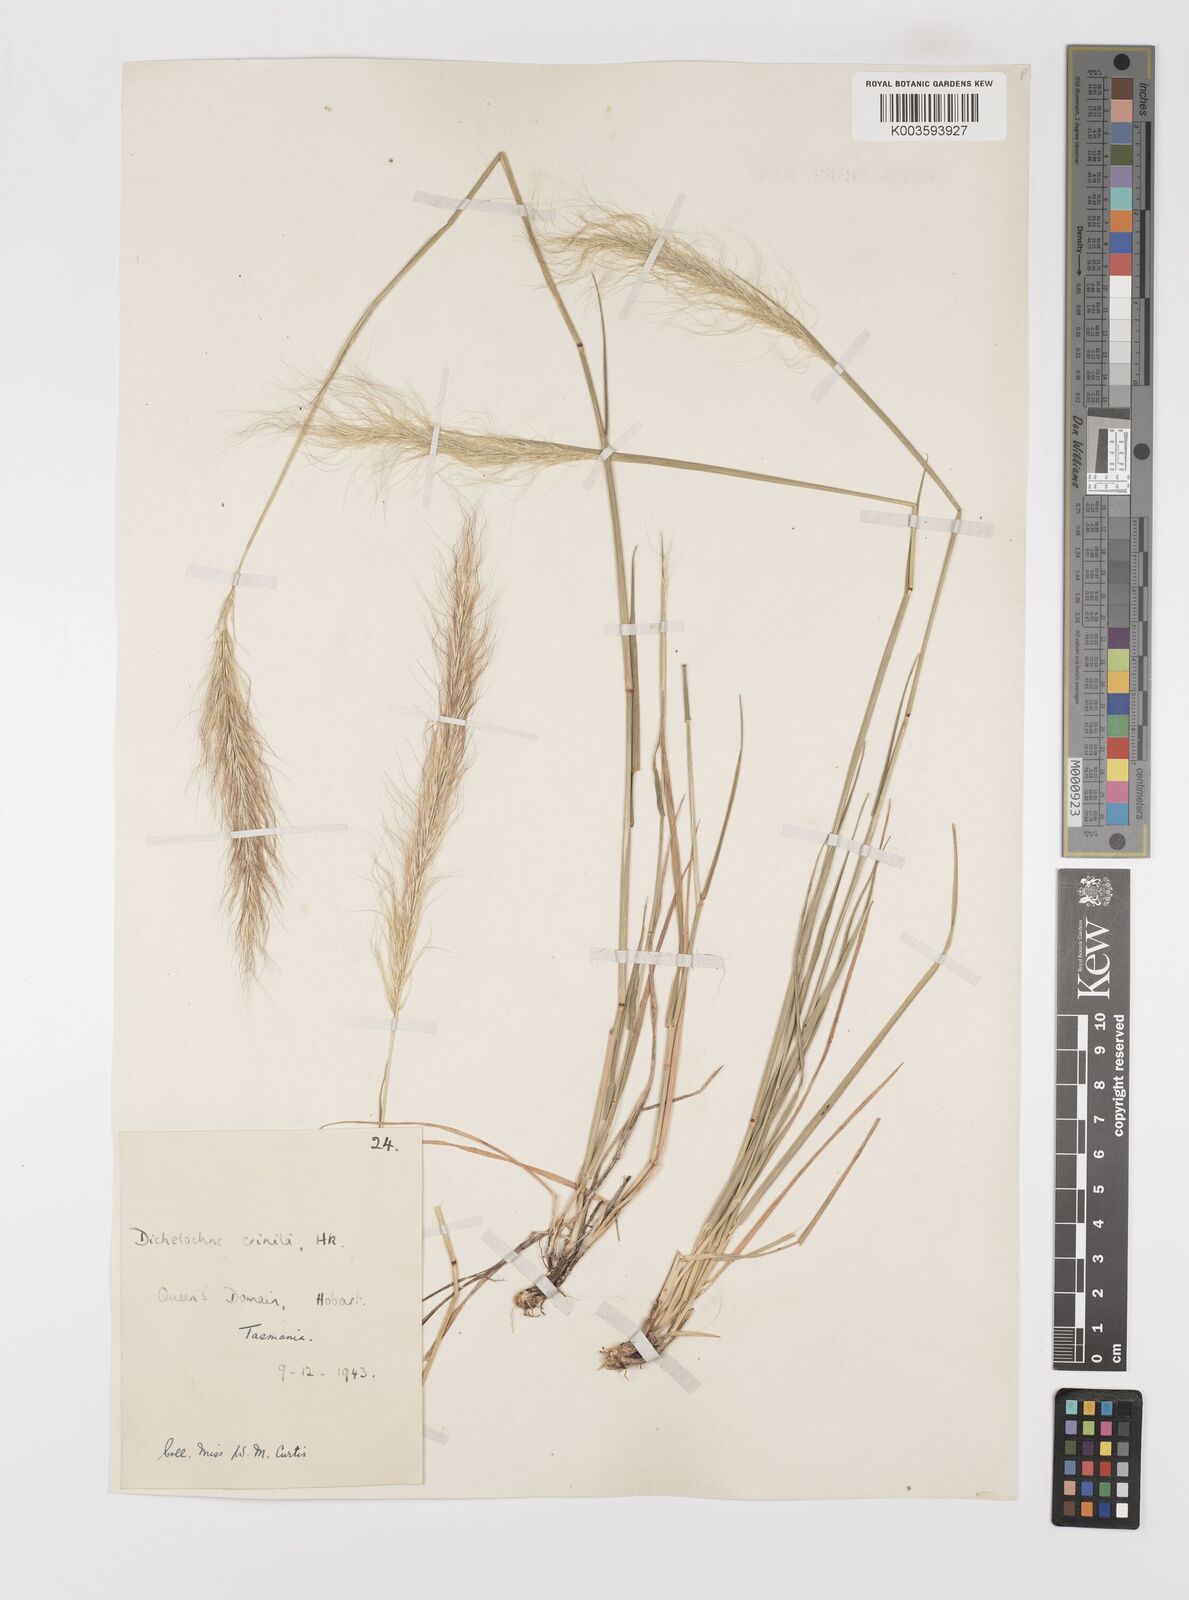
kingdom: Plantae
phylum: Tracheophyta
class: Liliopsida
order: Poales
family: Poaceae
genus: Dichelachne
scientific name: Dichelachne crinita
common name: Clovenfoot plumegrass
